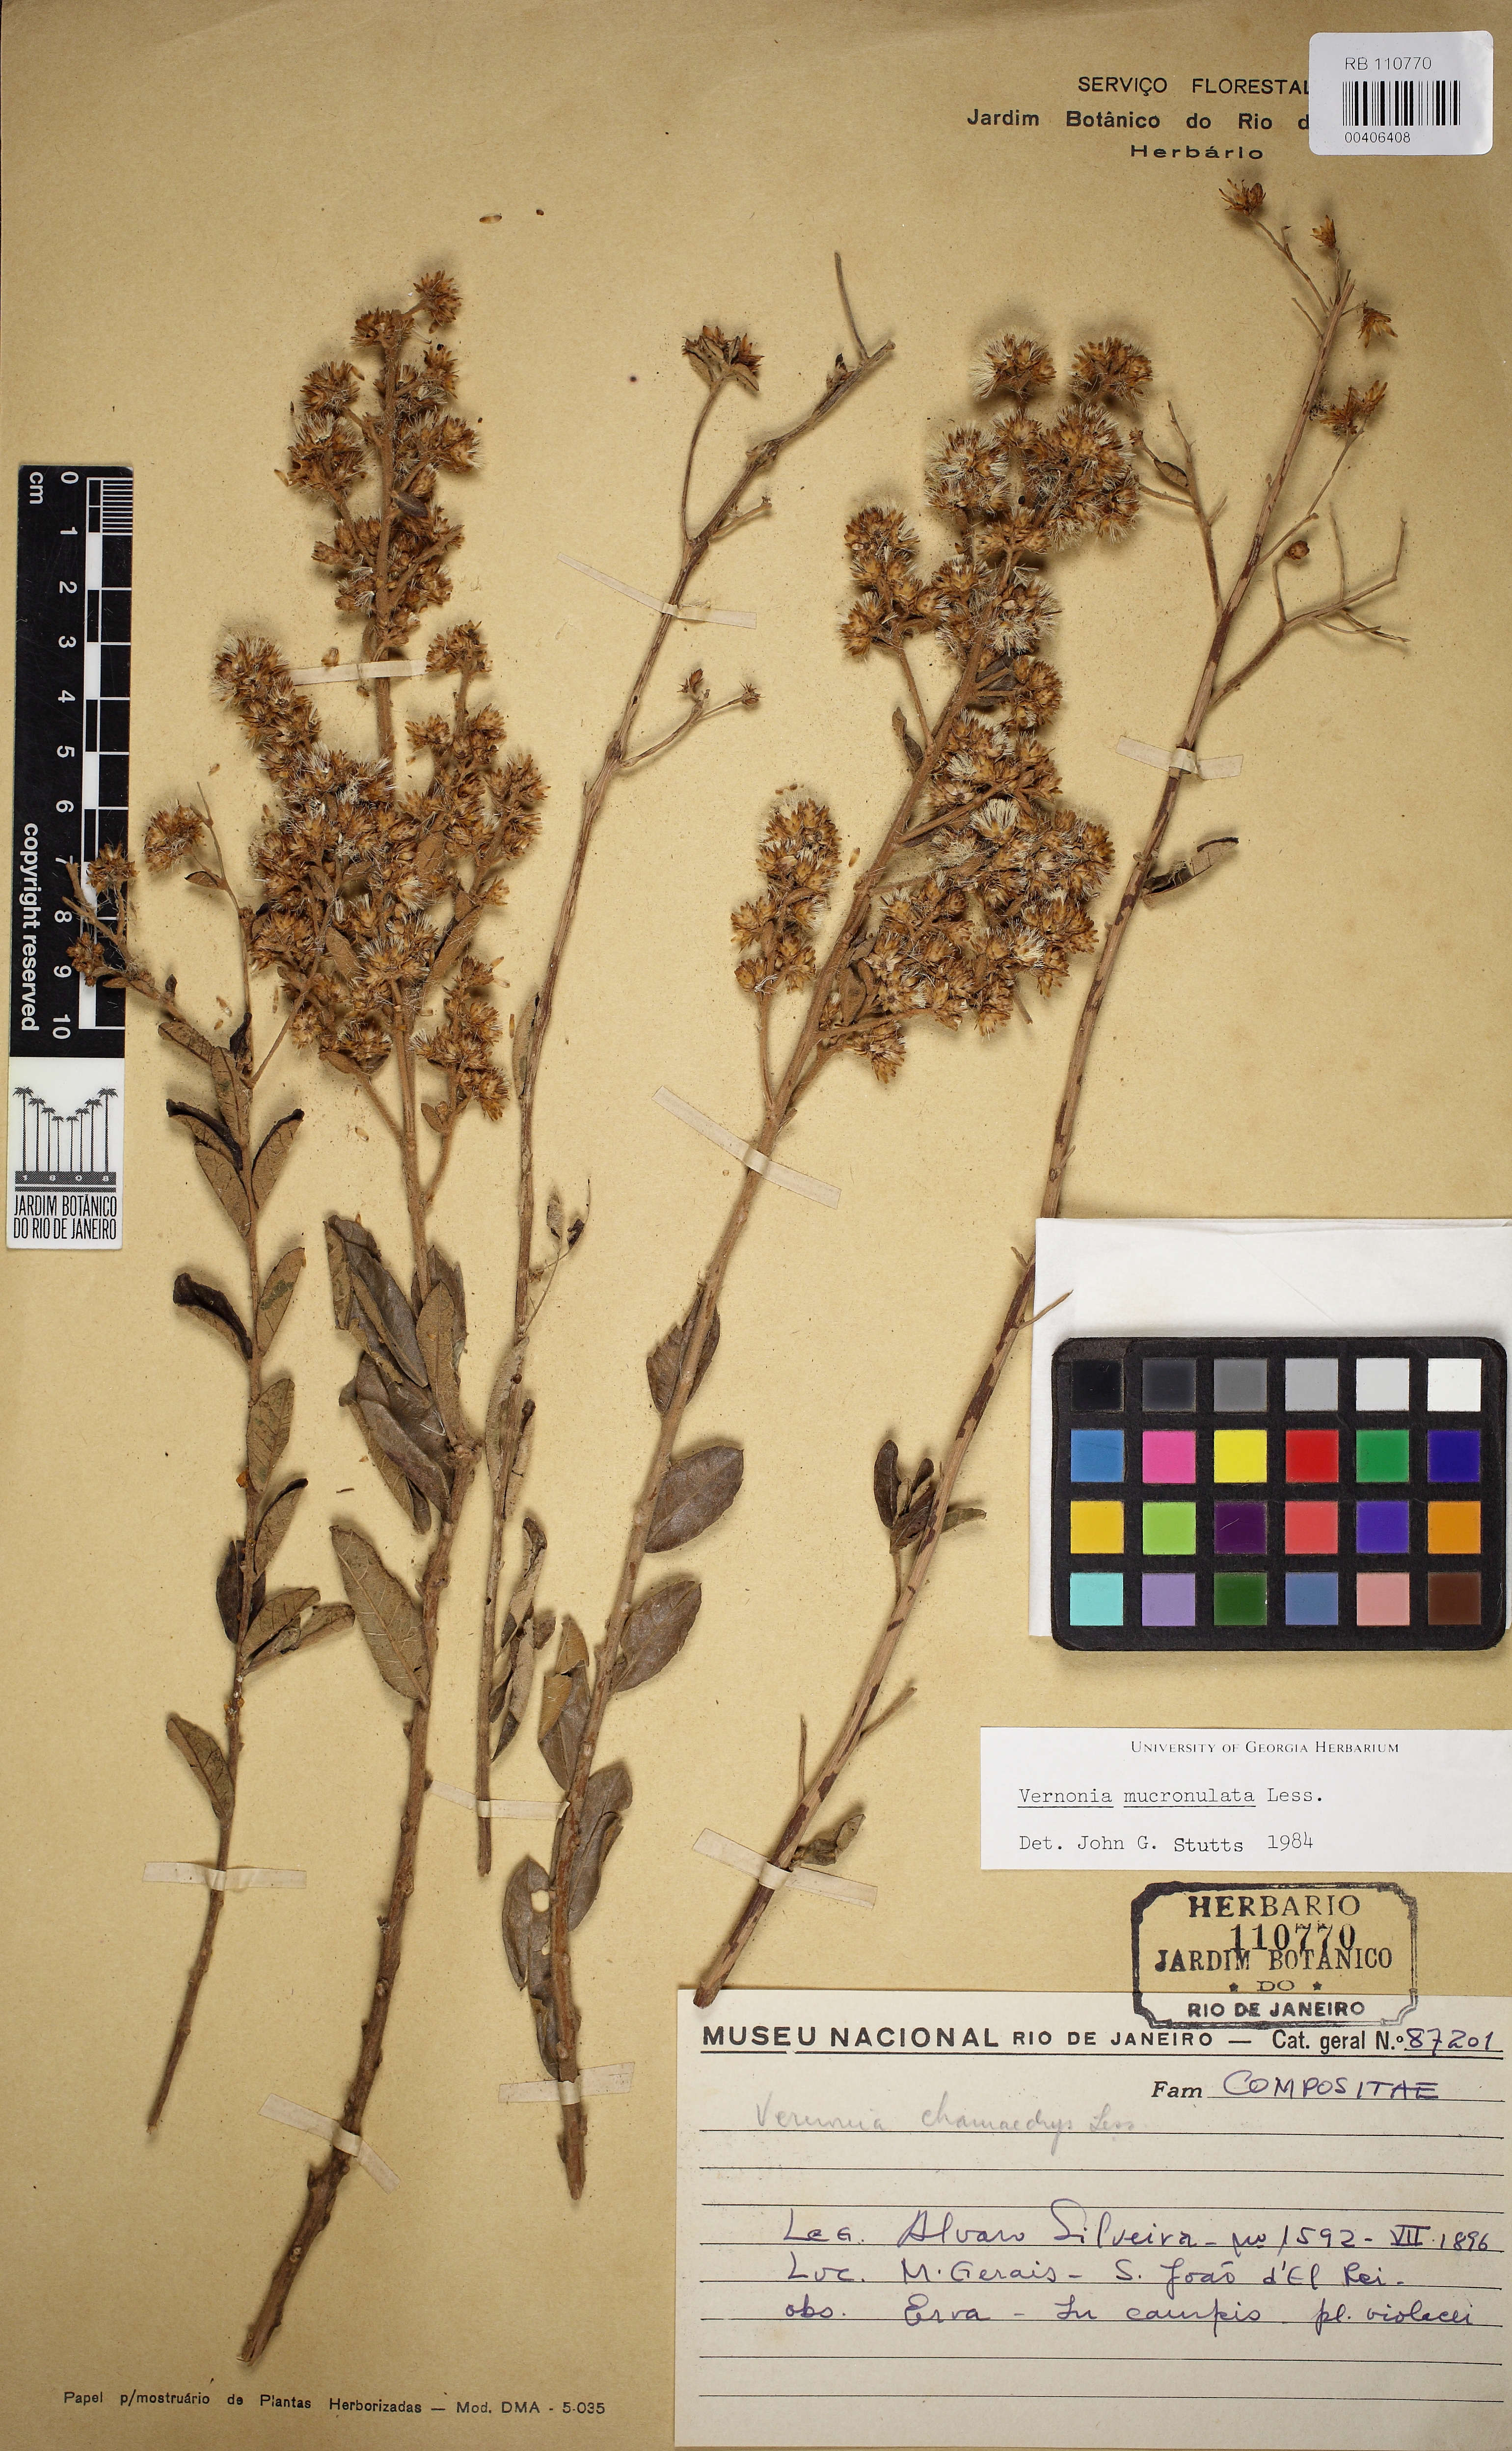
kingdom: Plantae
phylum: Tracheophyta
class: Magnoliopsida
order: Asterales
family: Asteraceae
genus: Vernonanthura
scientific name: Vernonanthura mucronulata
